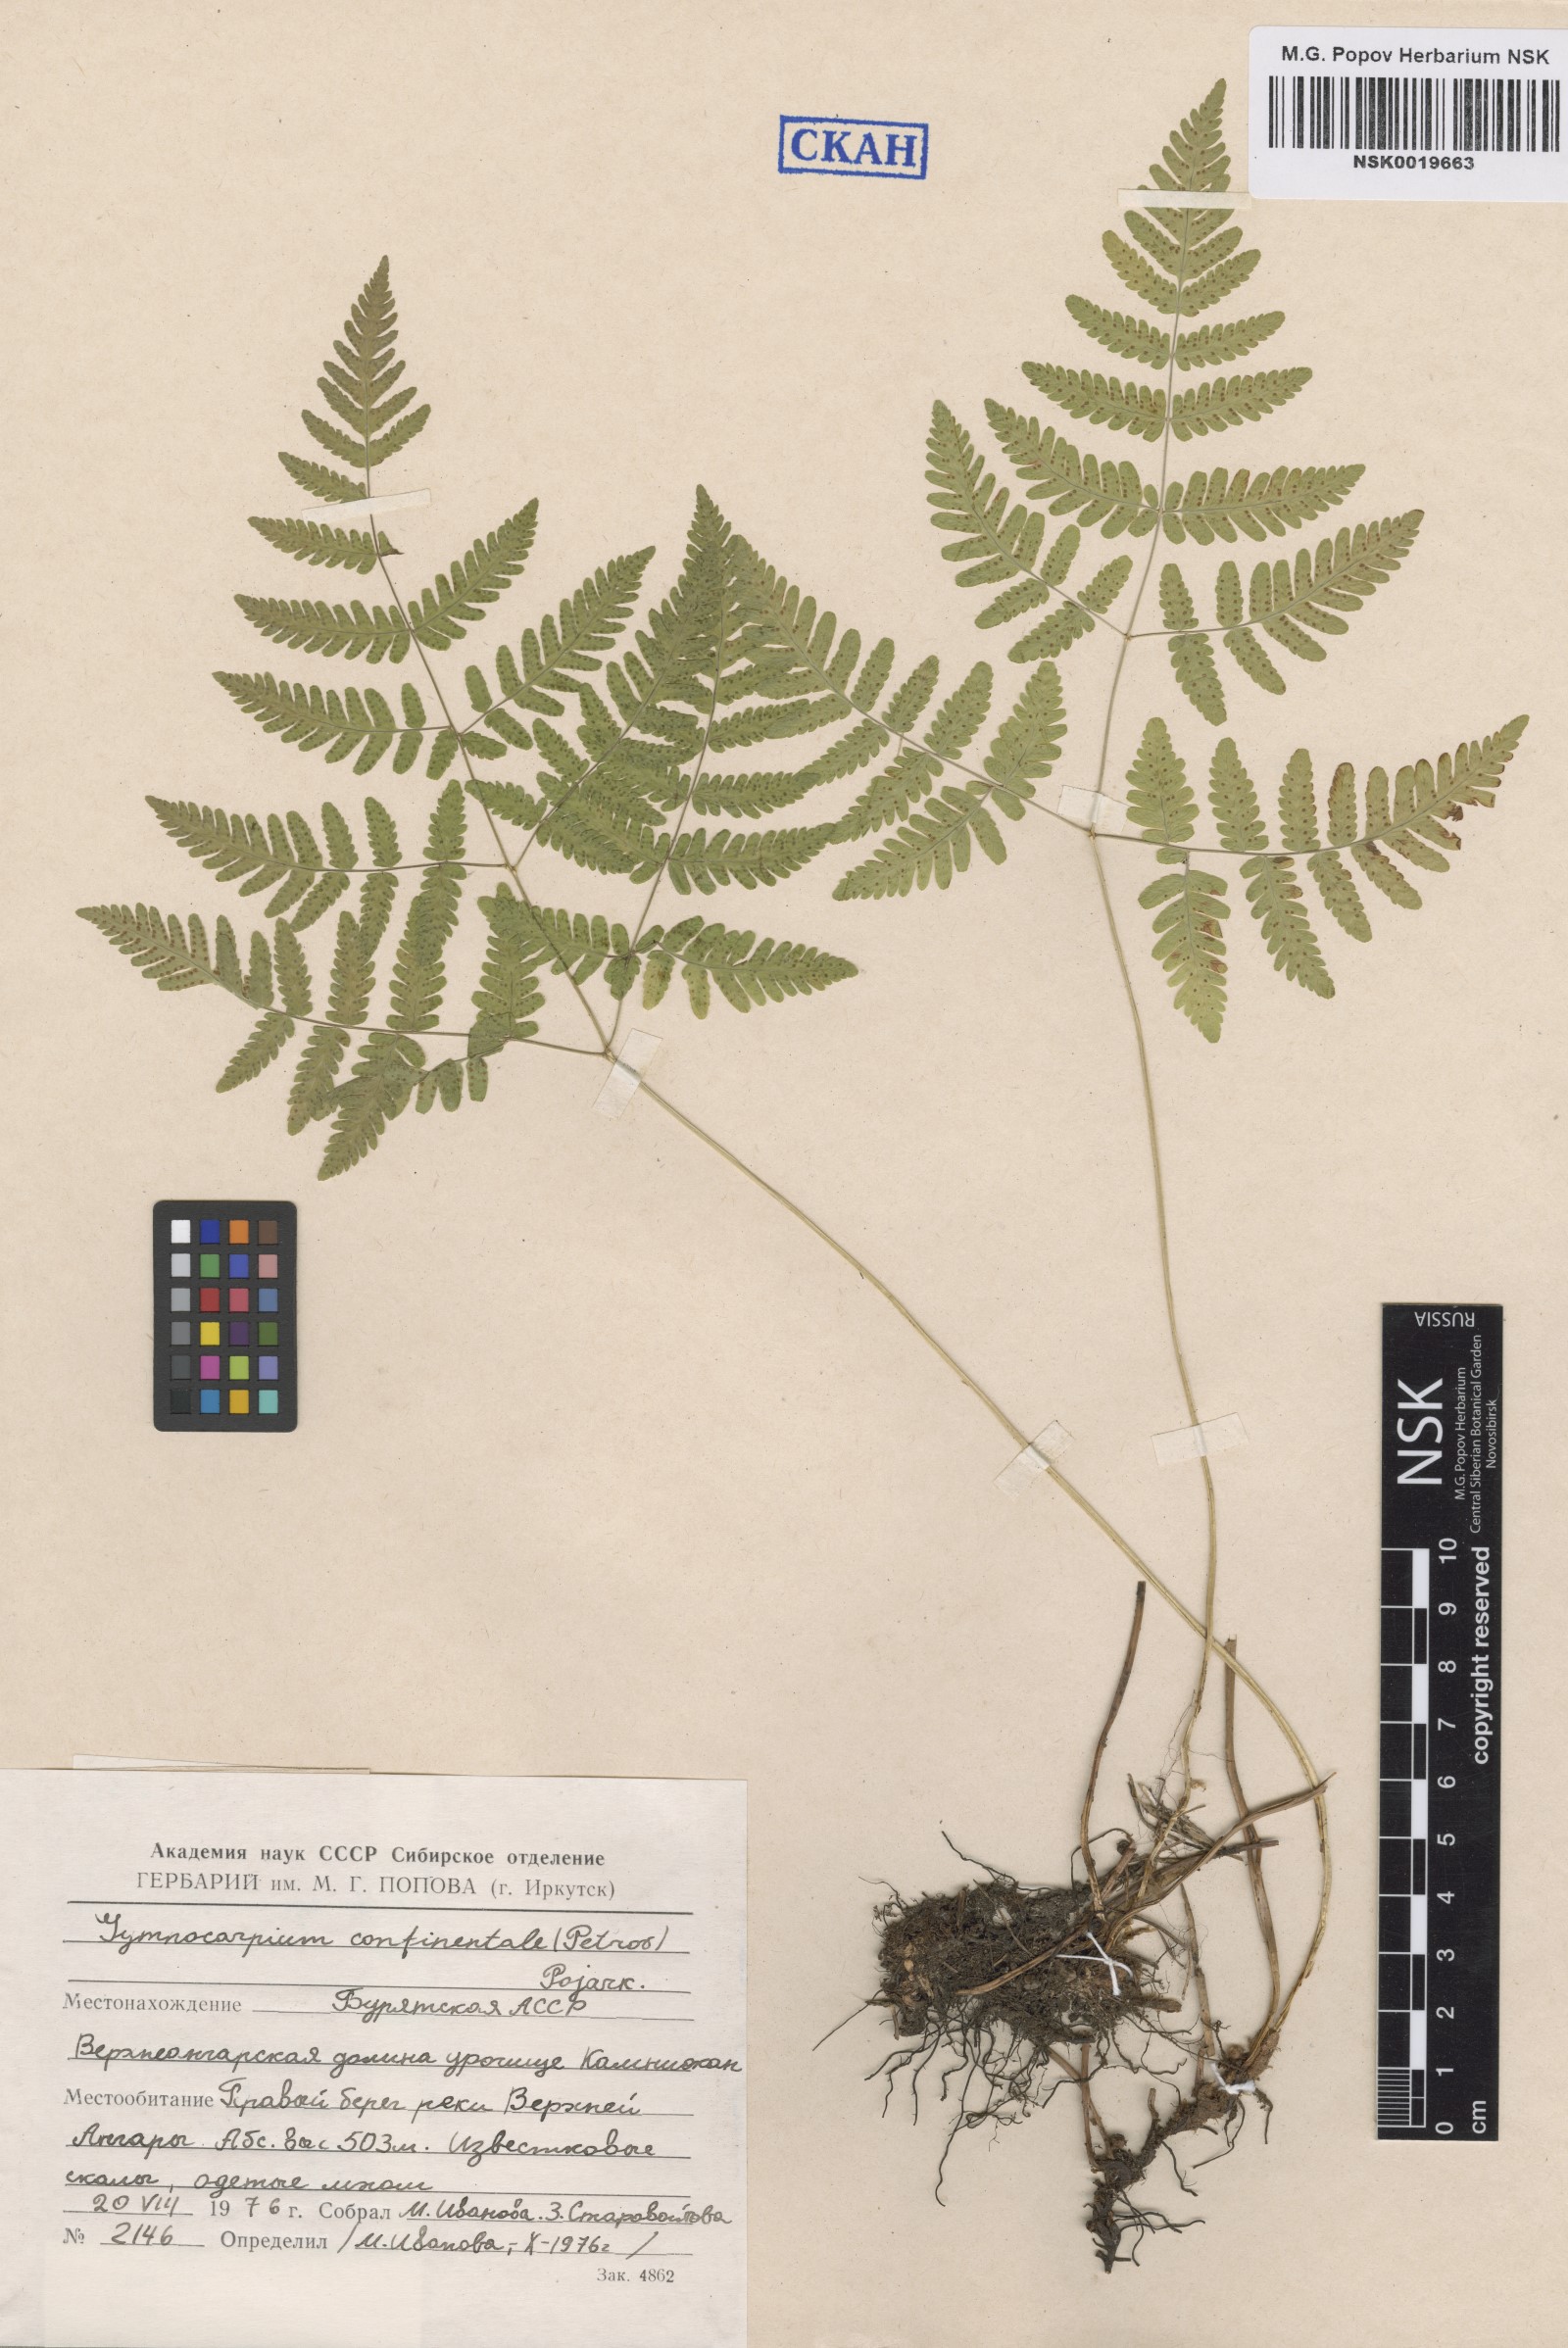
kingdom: Plantae
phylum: Tracheophyta
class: Polypodiopsida
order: Polypodiales
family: Cystopteridaceae
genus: Gymnocarpium
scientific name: Gymnocarpium continentale
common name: Asian oak fern
